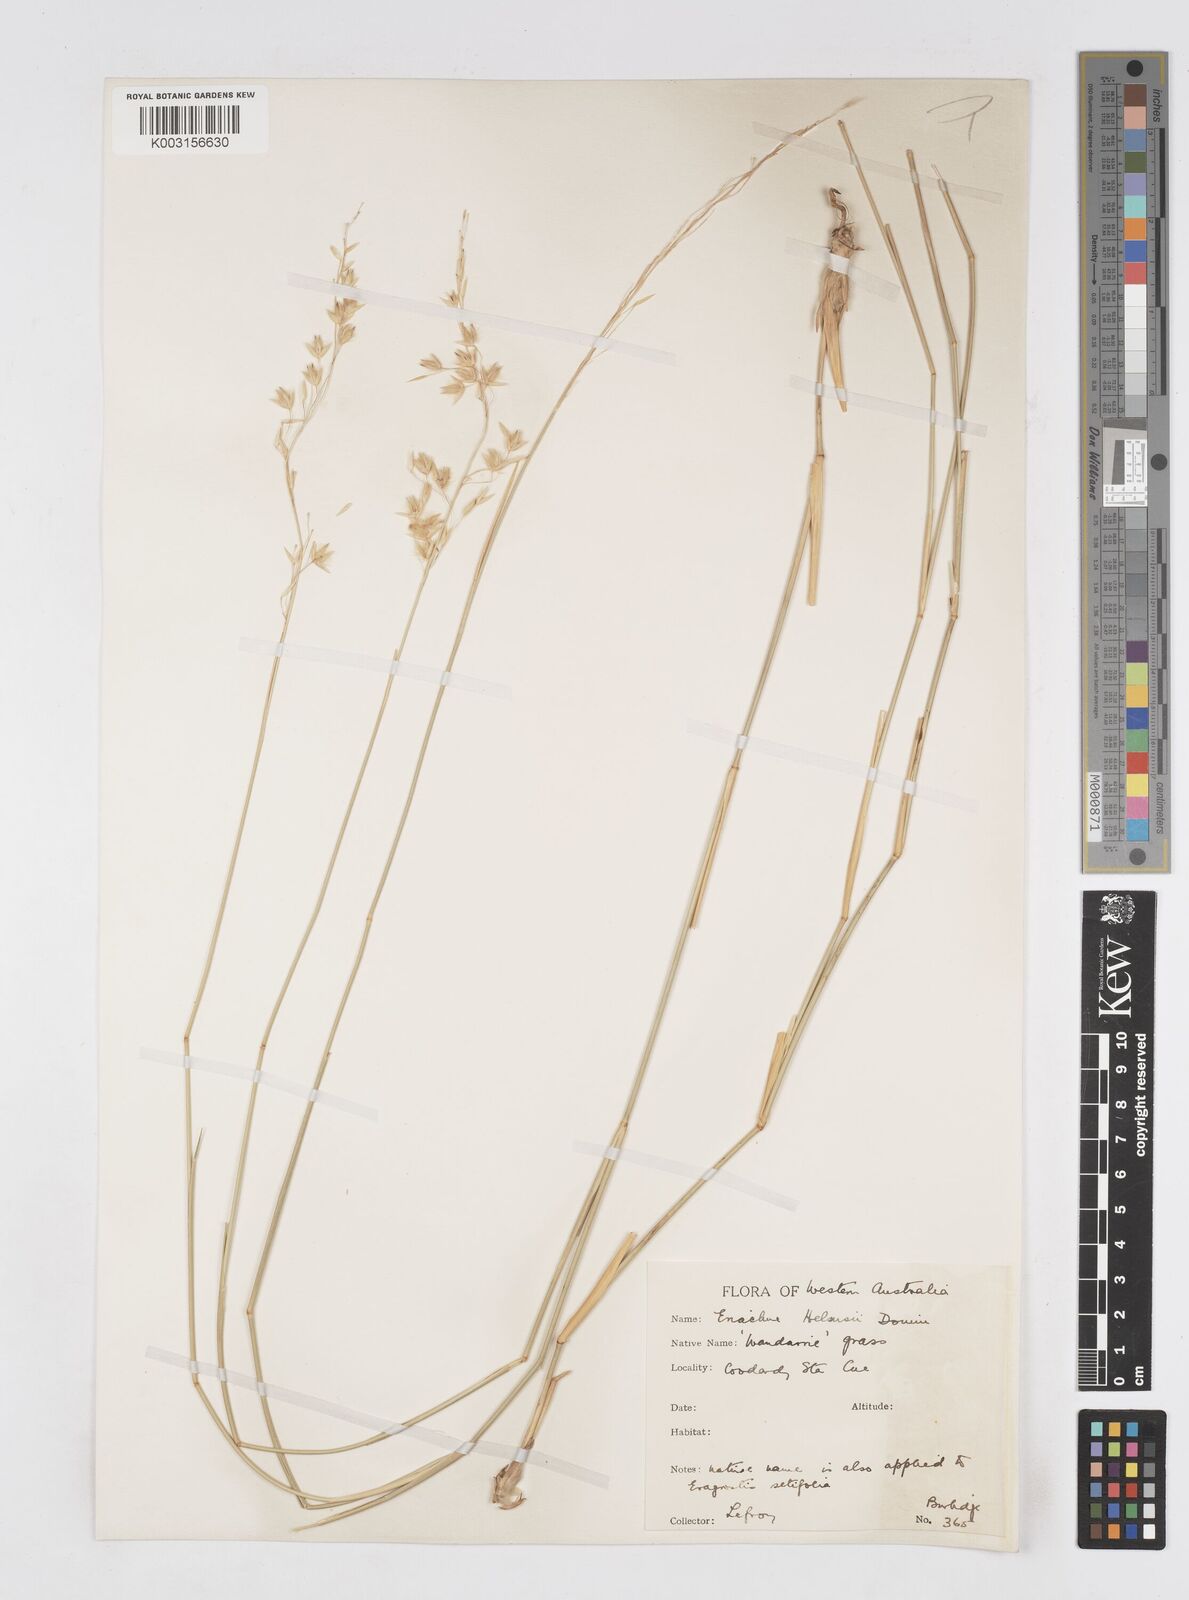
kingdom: Plantae
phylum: Tracheophyta
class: Liliopsida
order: Poales
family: Poaceae
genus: Eriachne
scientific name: Eriachne helmsii
